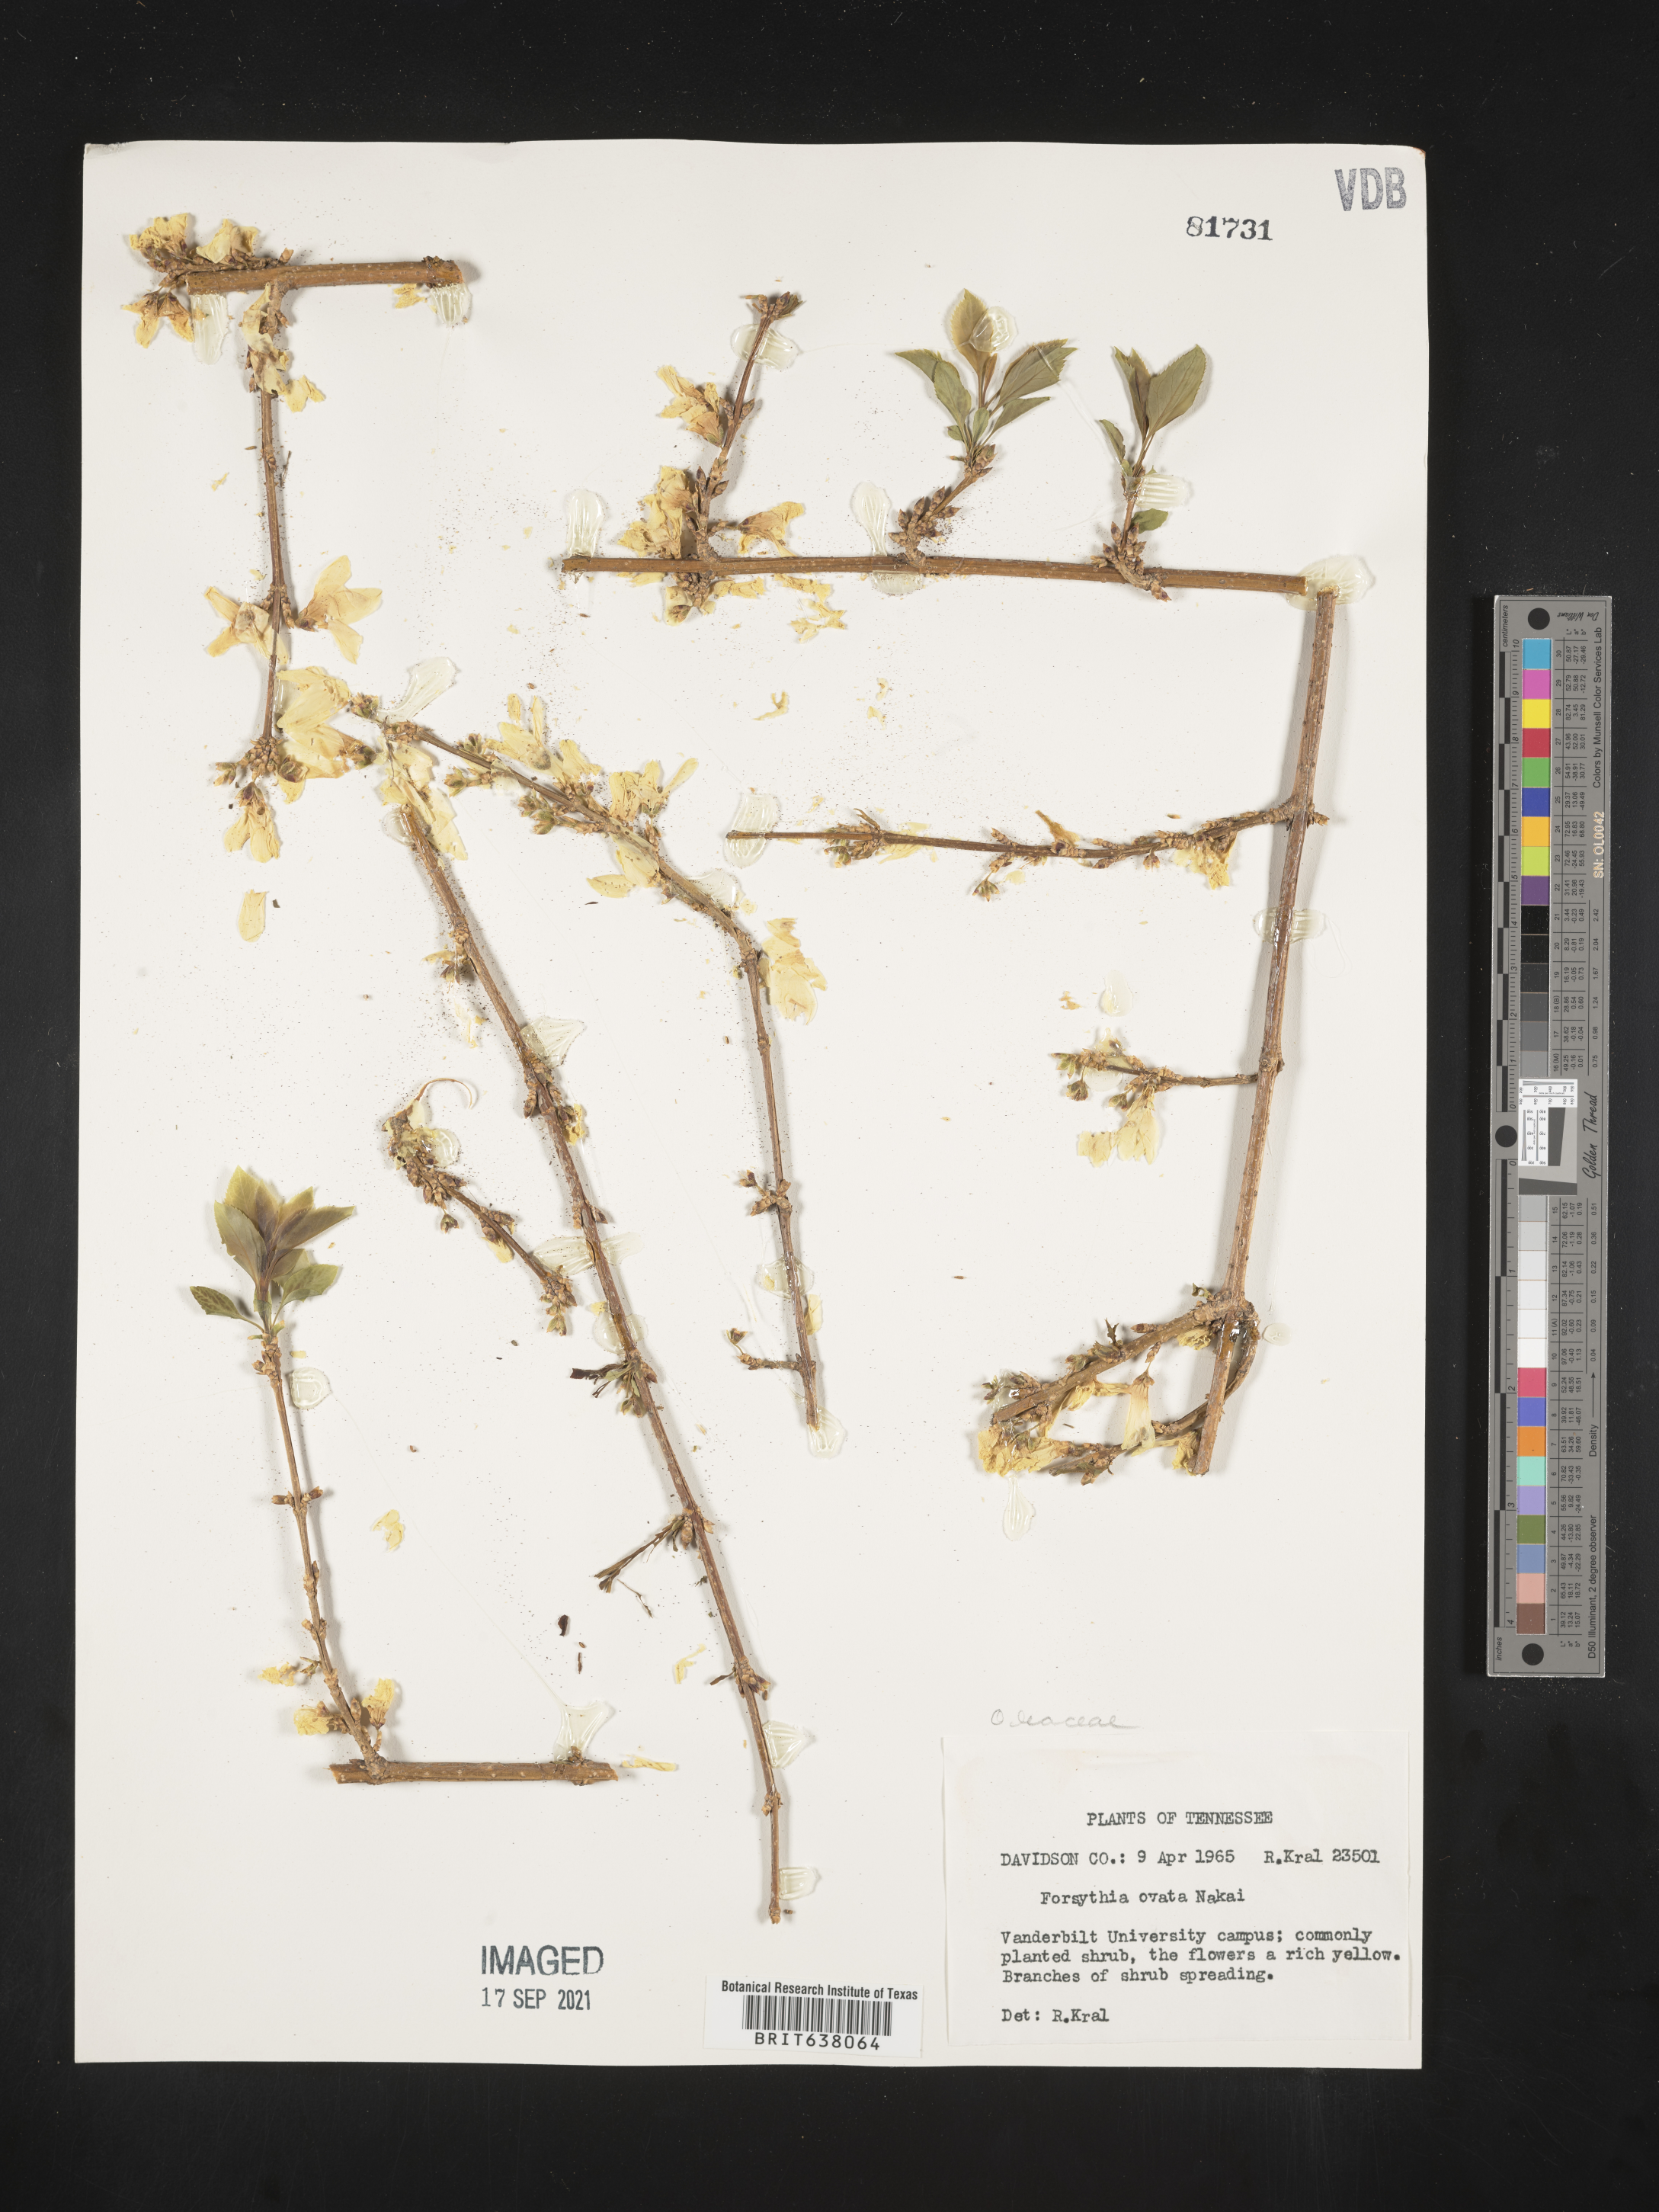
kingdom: Plantae
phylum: Tracheophyta
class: Magnoliopsida
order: Lamiales
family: Oleaceae
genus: Forsythia
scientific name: Forsythia
